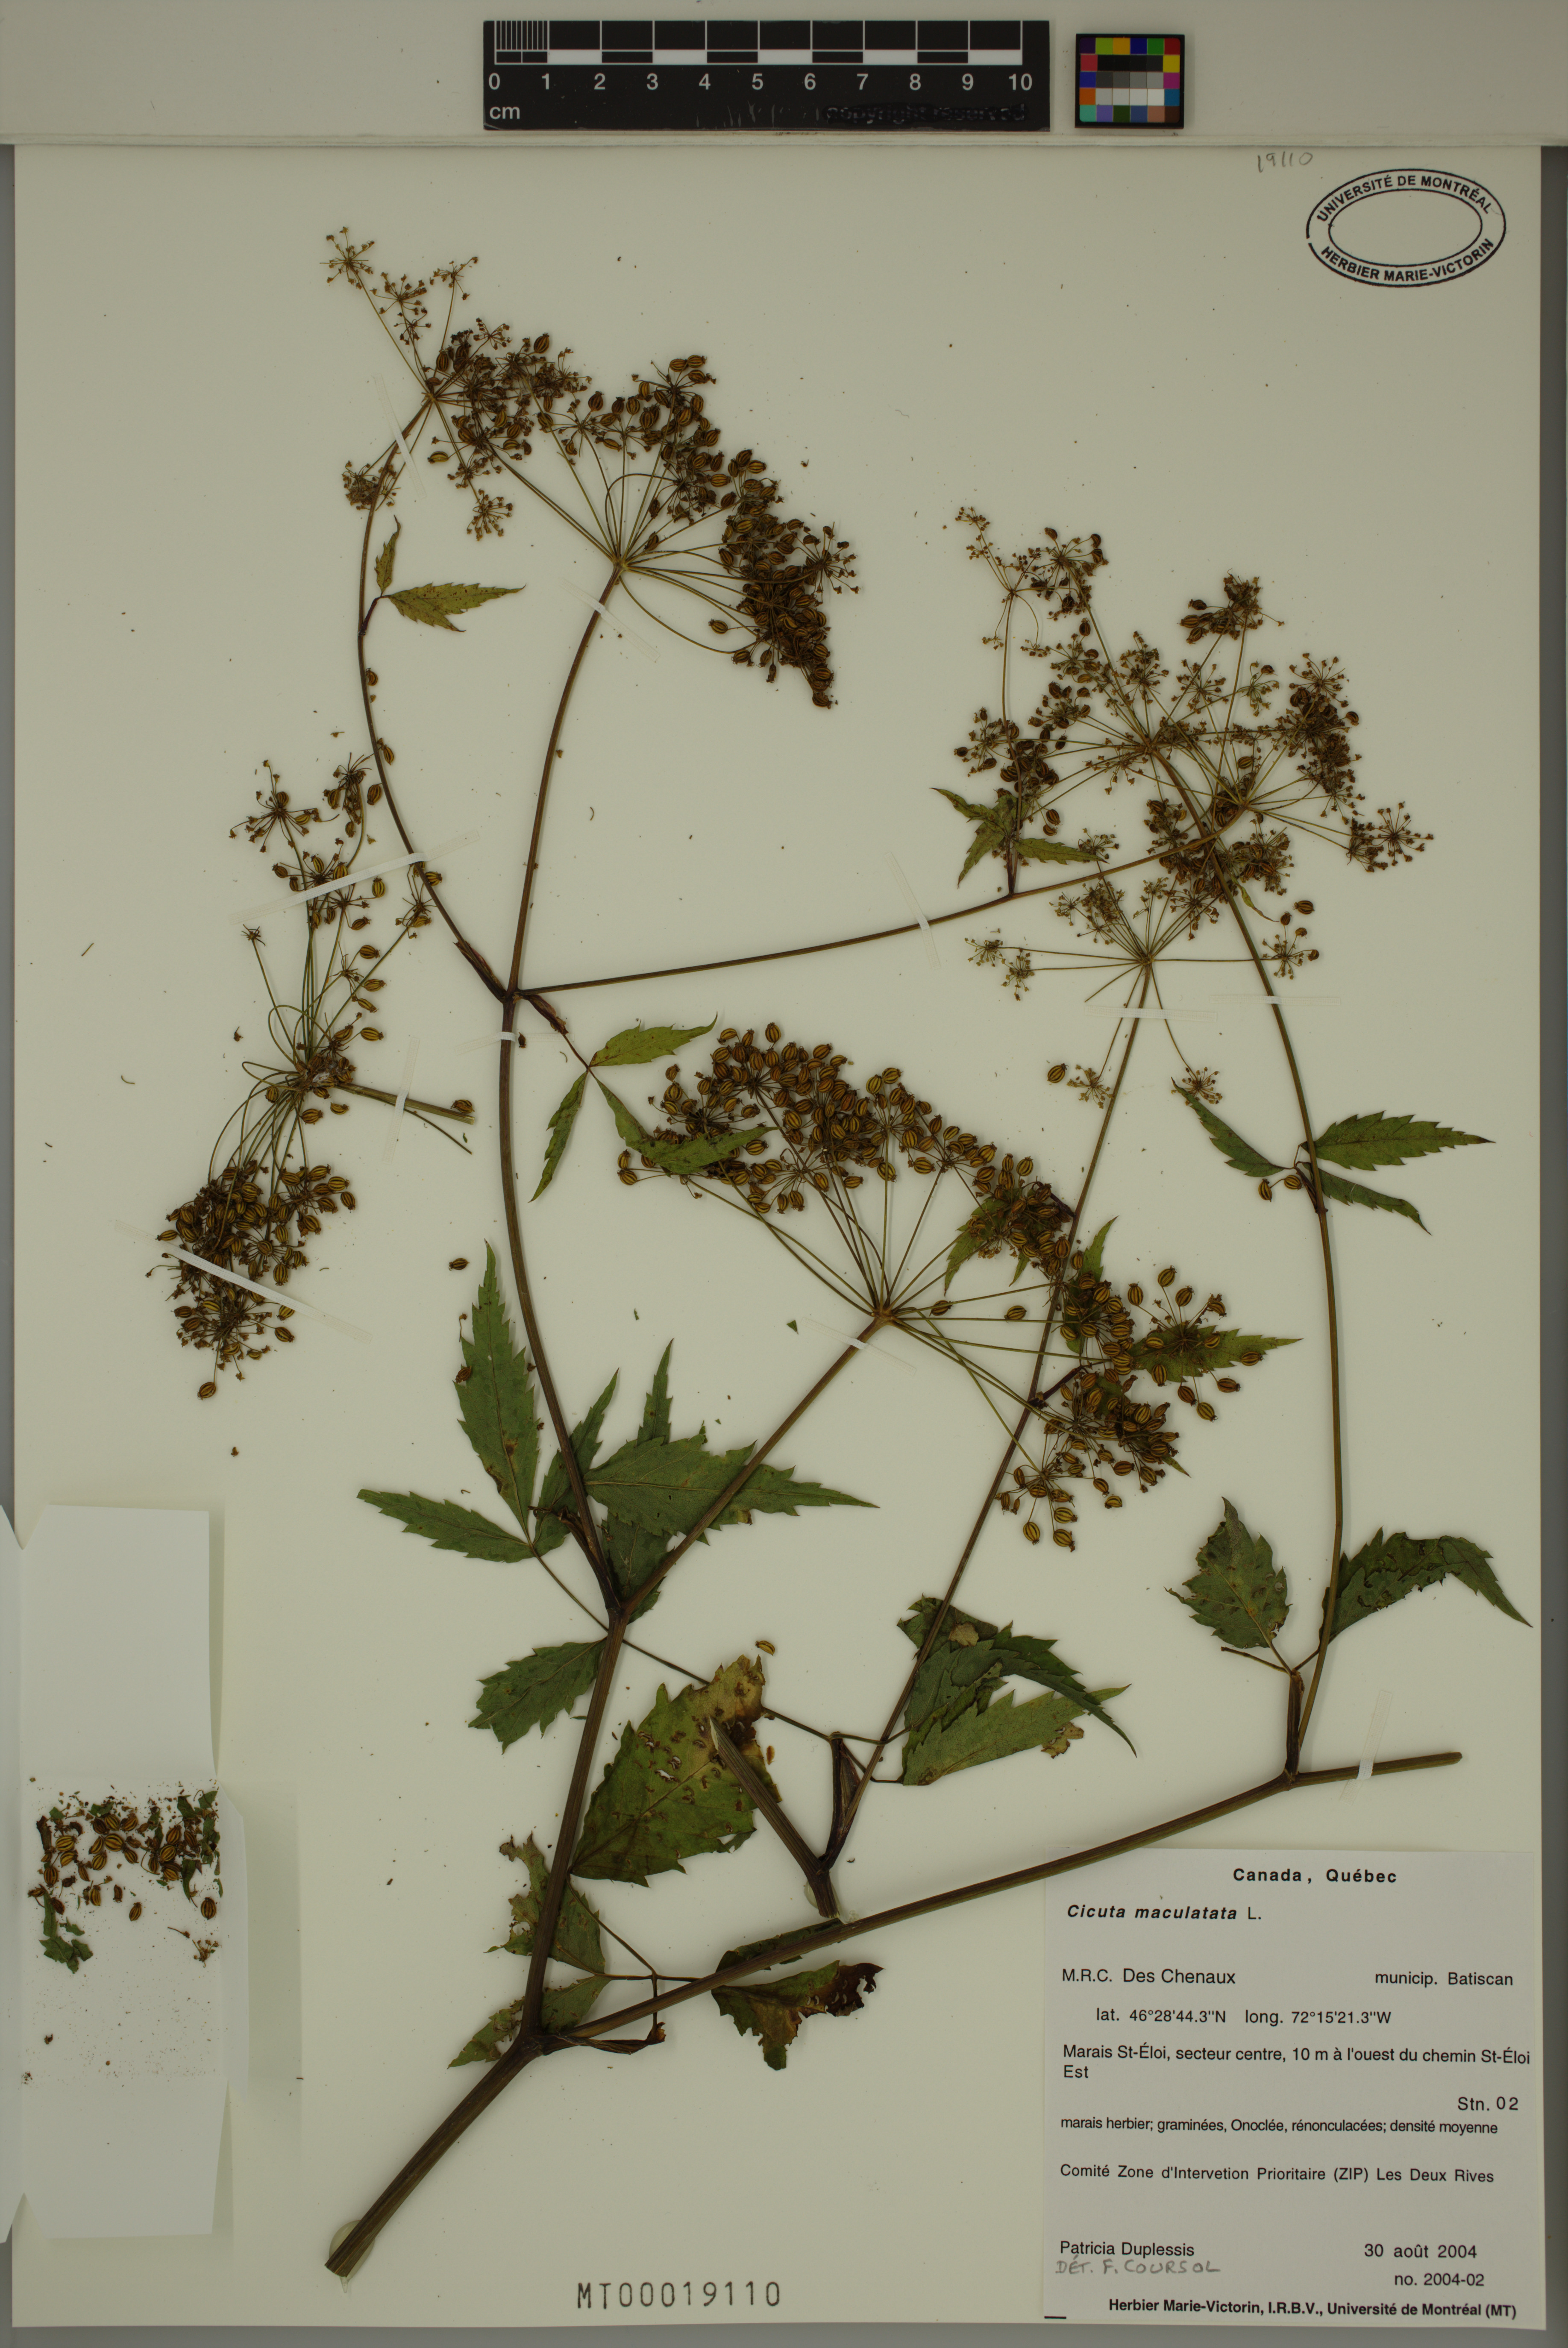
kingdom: Plantae
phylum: Tracheophyta
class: Magnoliopsida
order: Apiales
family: Apiaceae
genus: Cicuta
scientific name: Cicuta maculata
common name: Spotted cowbane
